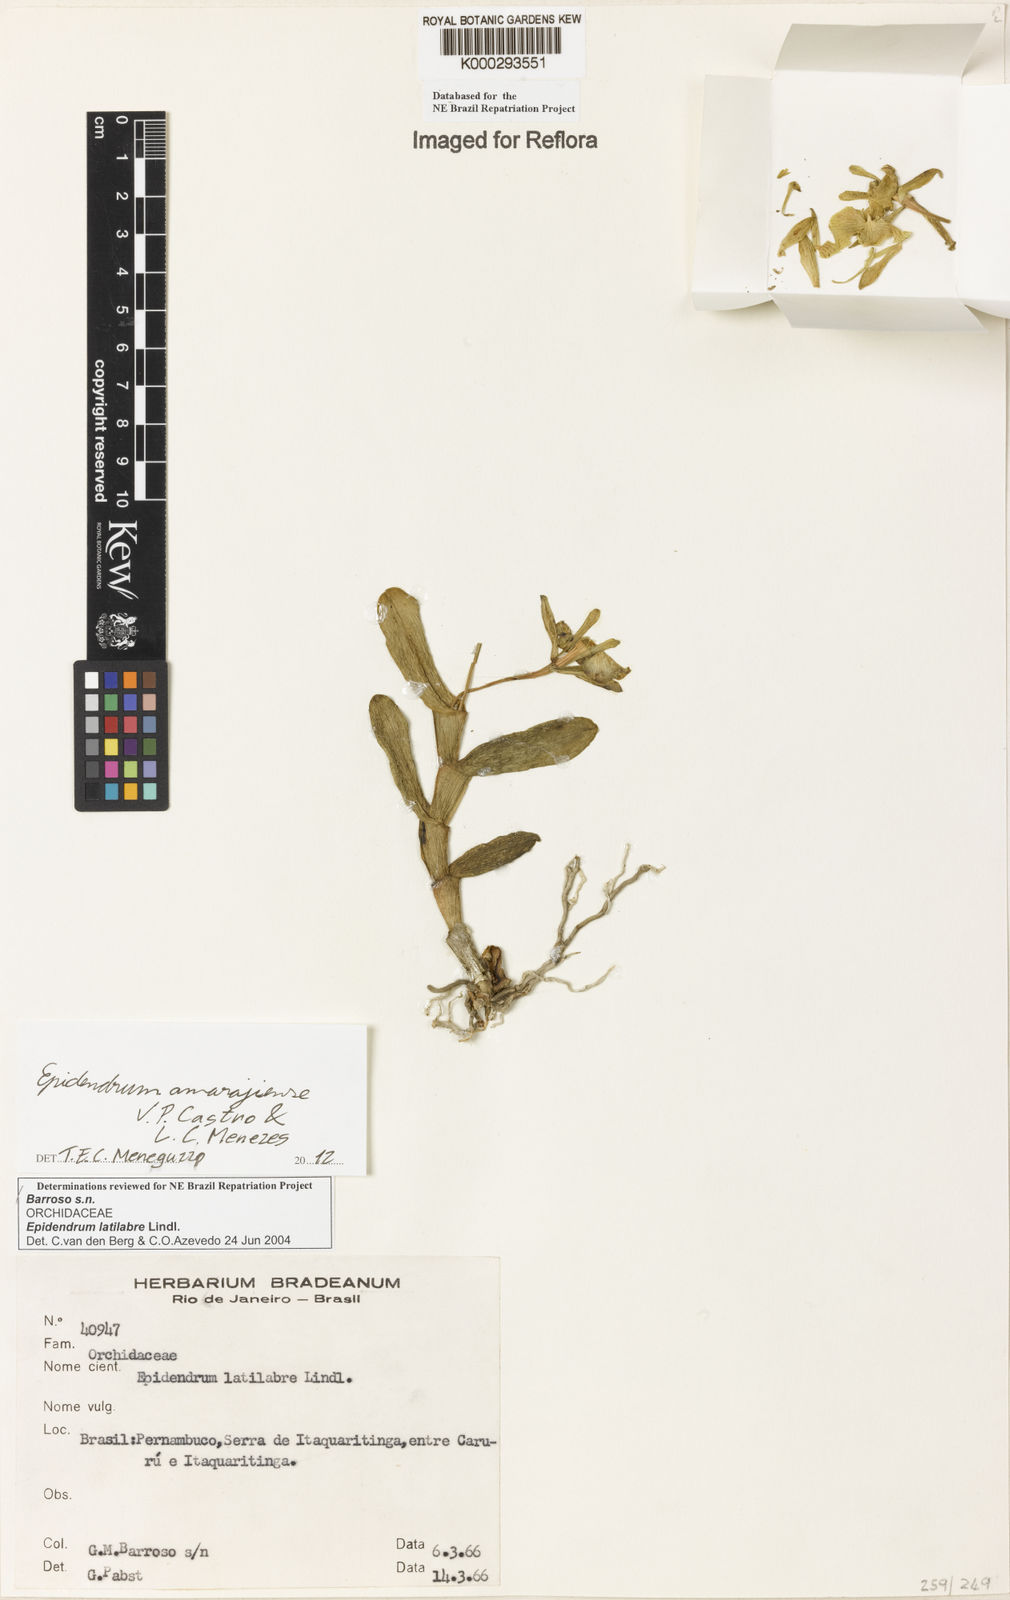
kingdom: Plantae
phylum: Tracheophyta
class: Liliopsida
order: Asparagales
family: Orchidaceae
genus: Epidendrum
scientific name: Epidendrum latilabre
